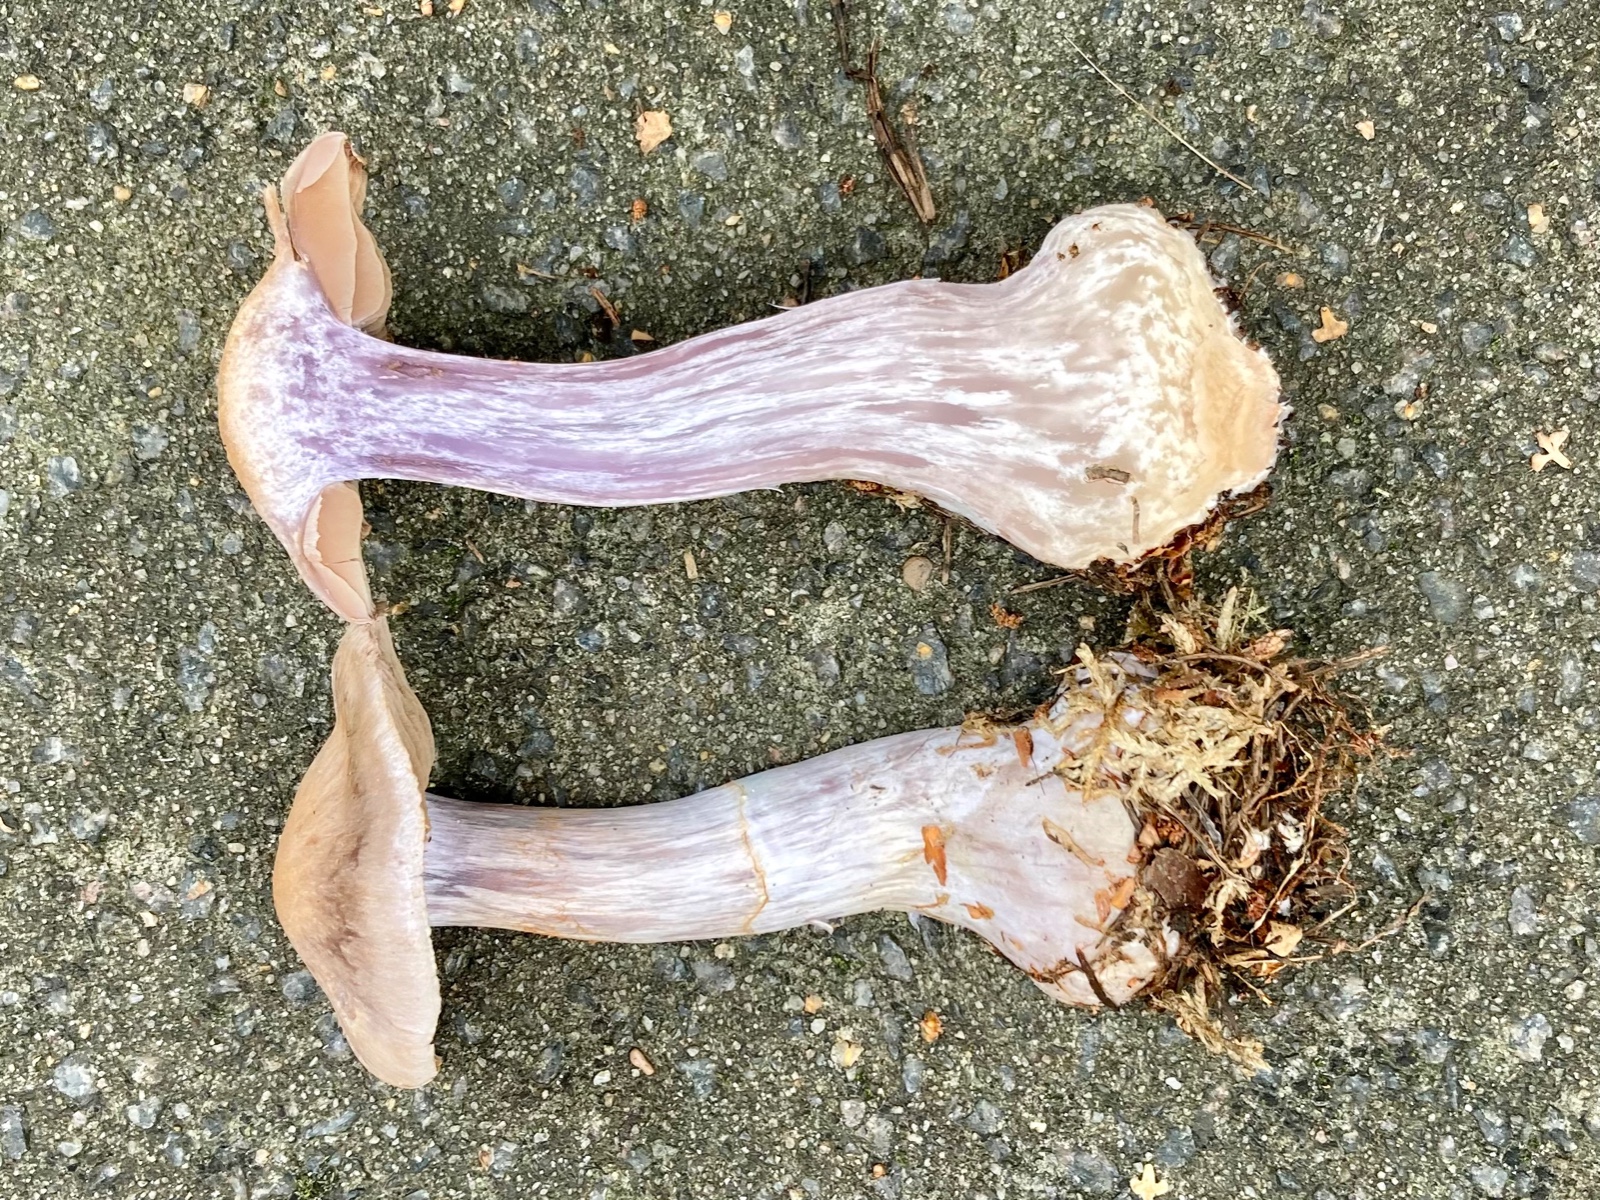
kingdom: Fungi
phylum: Basidiomycota
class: Agaricomycetes
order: Agaricales
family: Cortinariaceae
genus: Cortinarius
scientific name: Cortinarius quarciticus
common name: kvarts-slørhat
